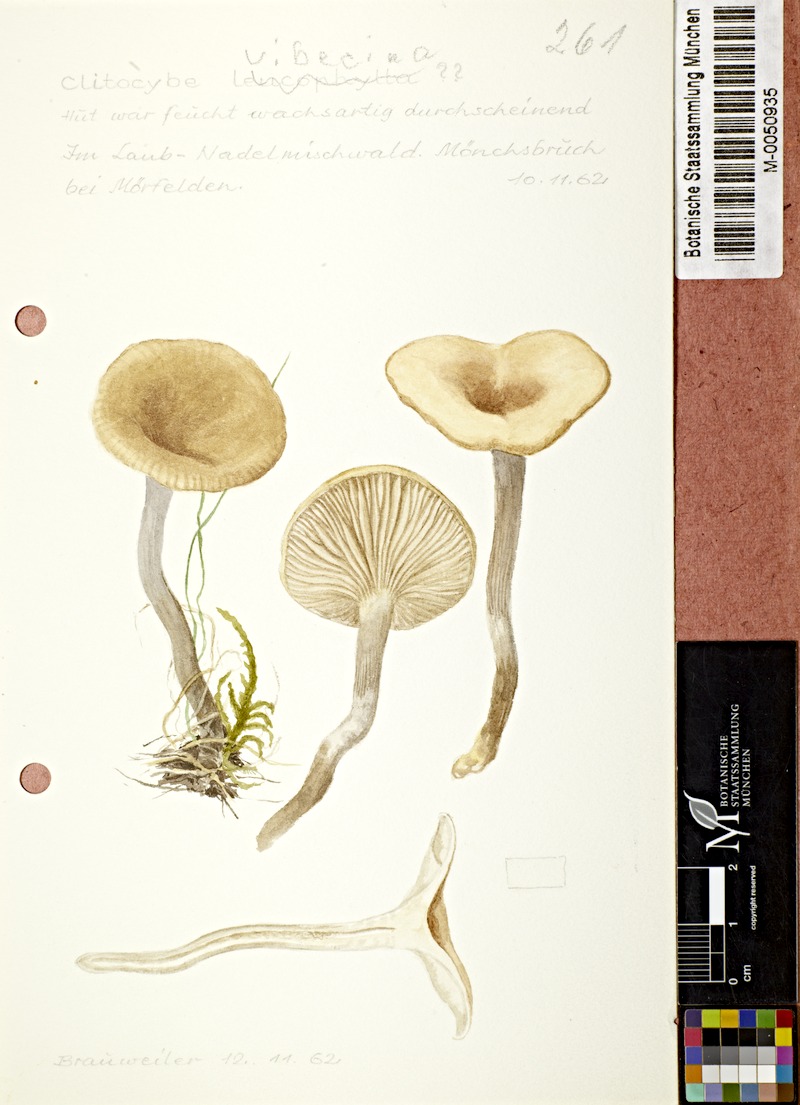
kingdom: Fungi
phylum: Basidiomycota
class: Agaricomycetes
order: Agaricales
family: Tricholomataceae
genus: Clitocybe
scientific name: Clitocybe vibecina
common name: Mealy funnel
